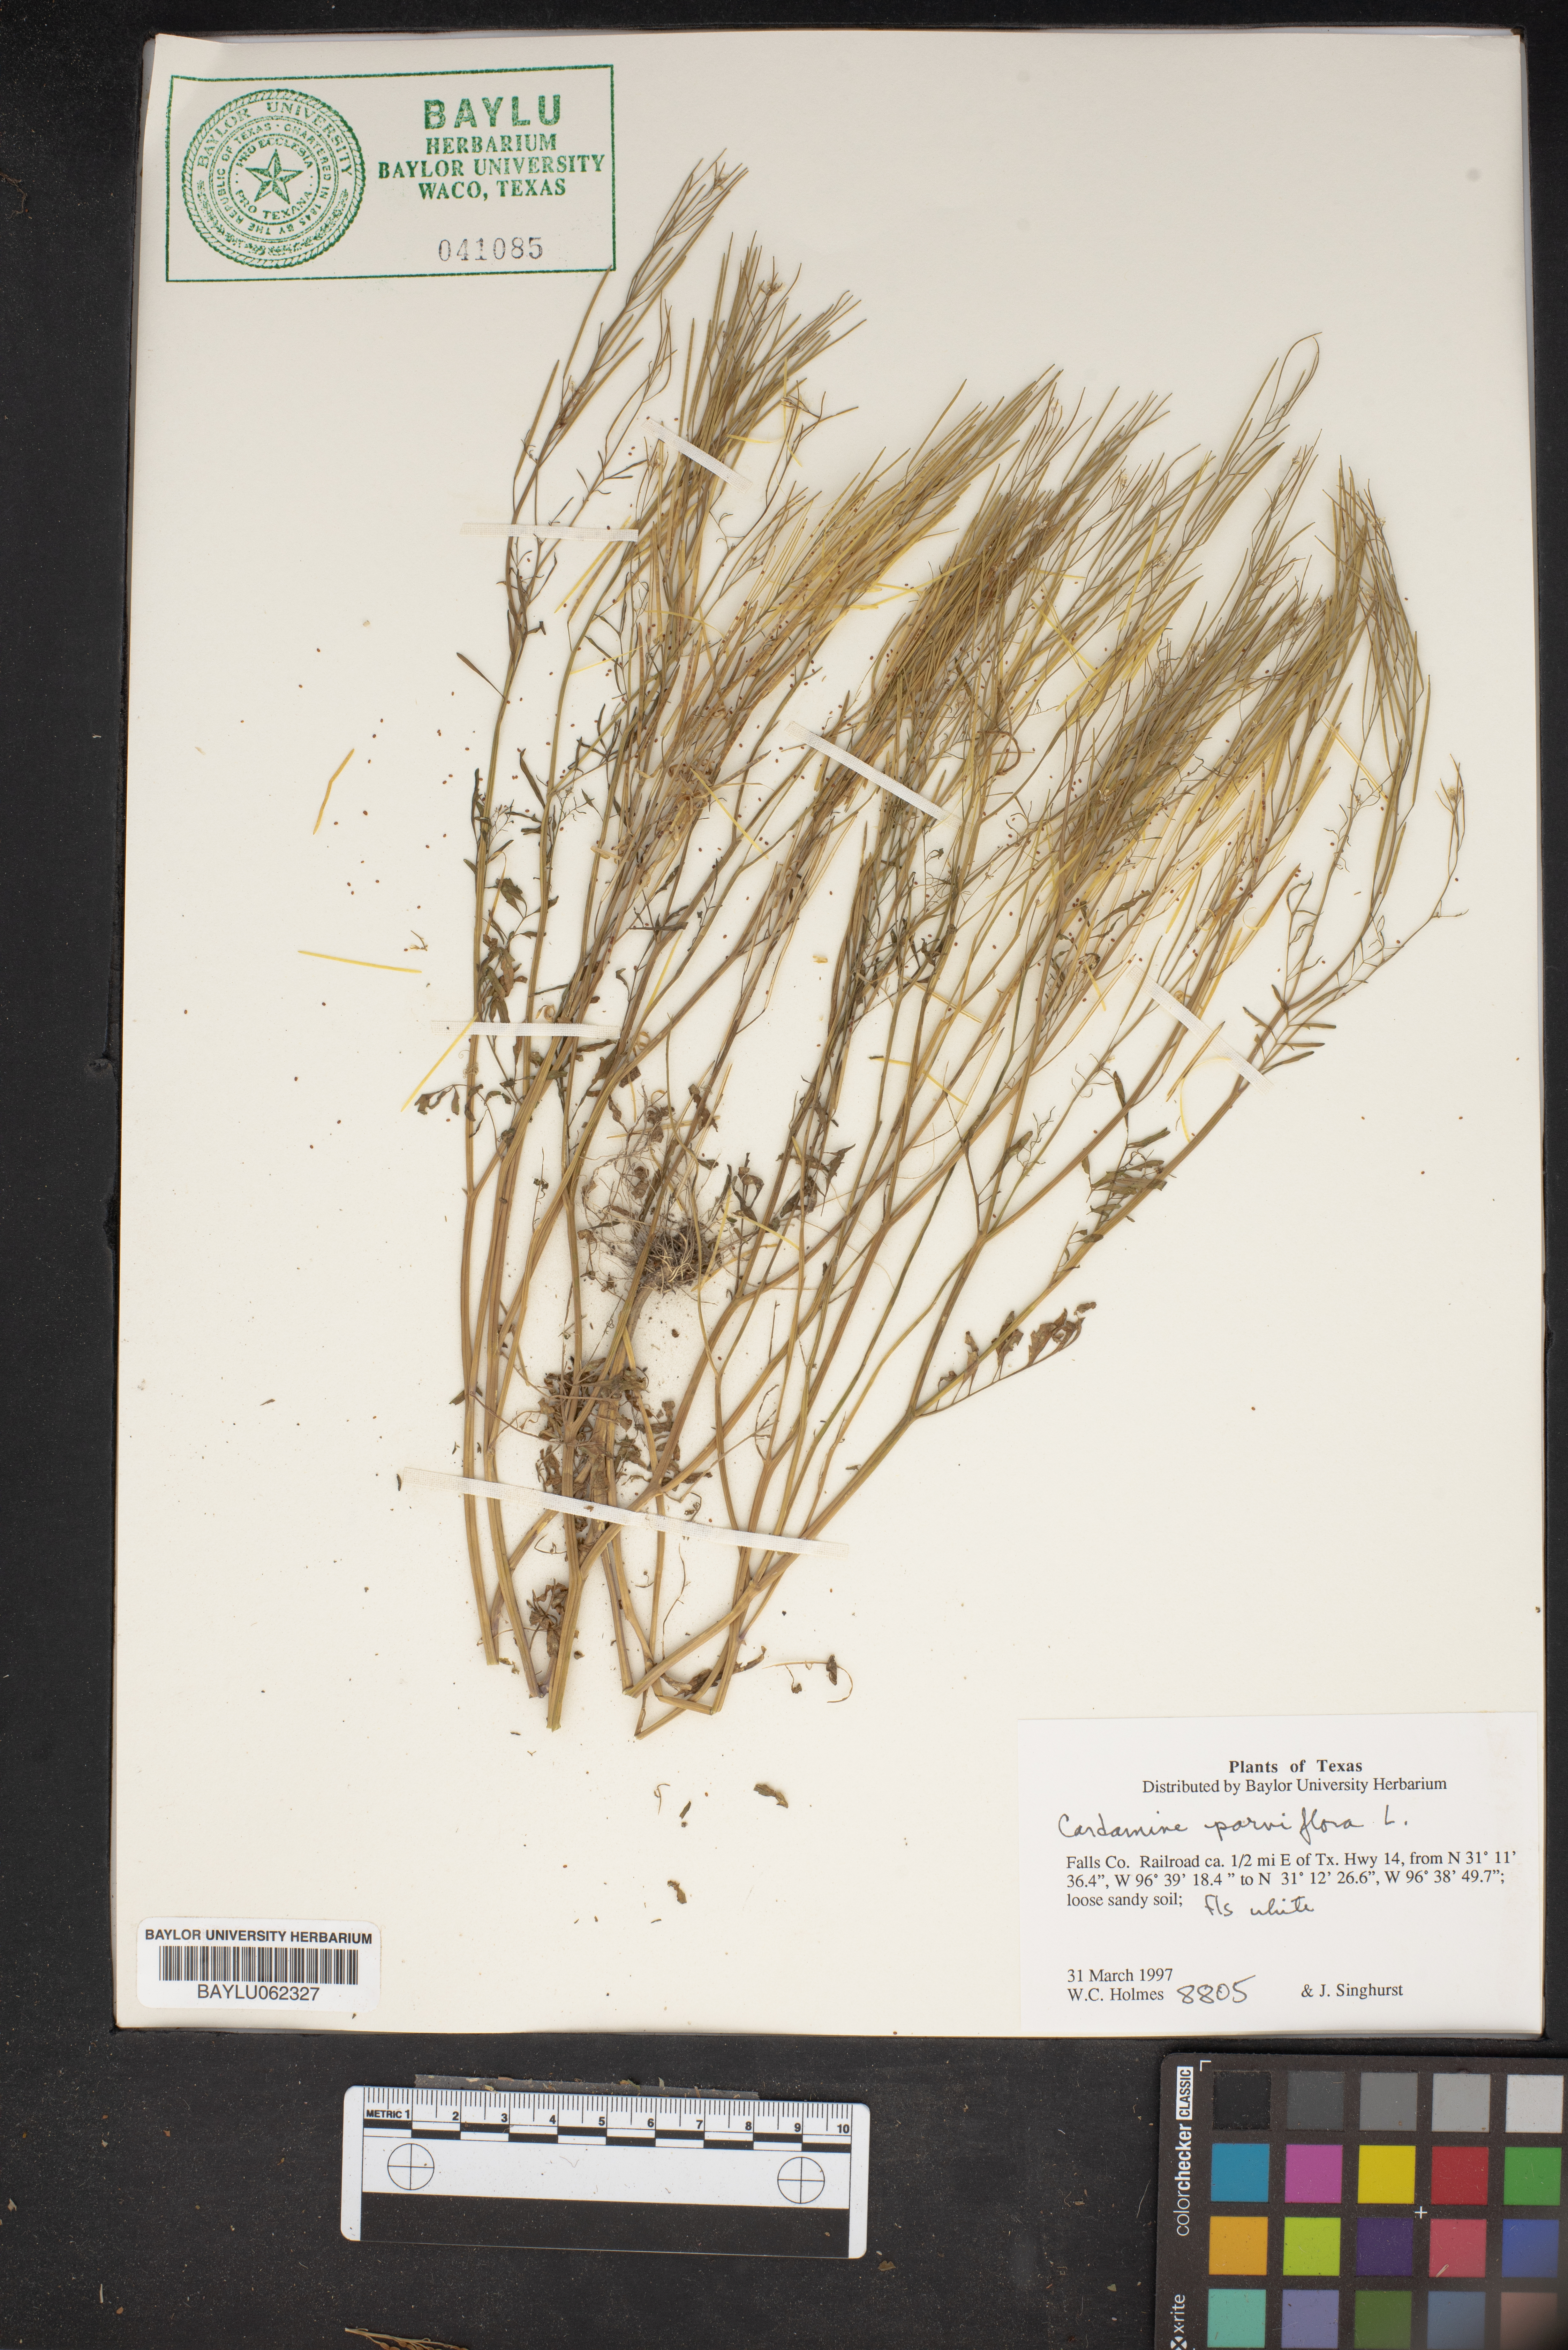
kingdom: Plantae
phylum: Tracheophyta
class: Magnoliopsida
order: Brassicales
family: Brassicaceae
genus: Cardamine
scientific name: Cardamine parviflora
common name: Sand bittercress
